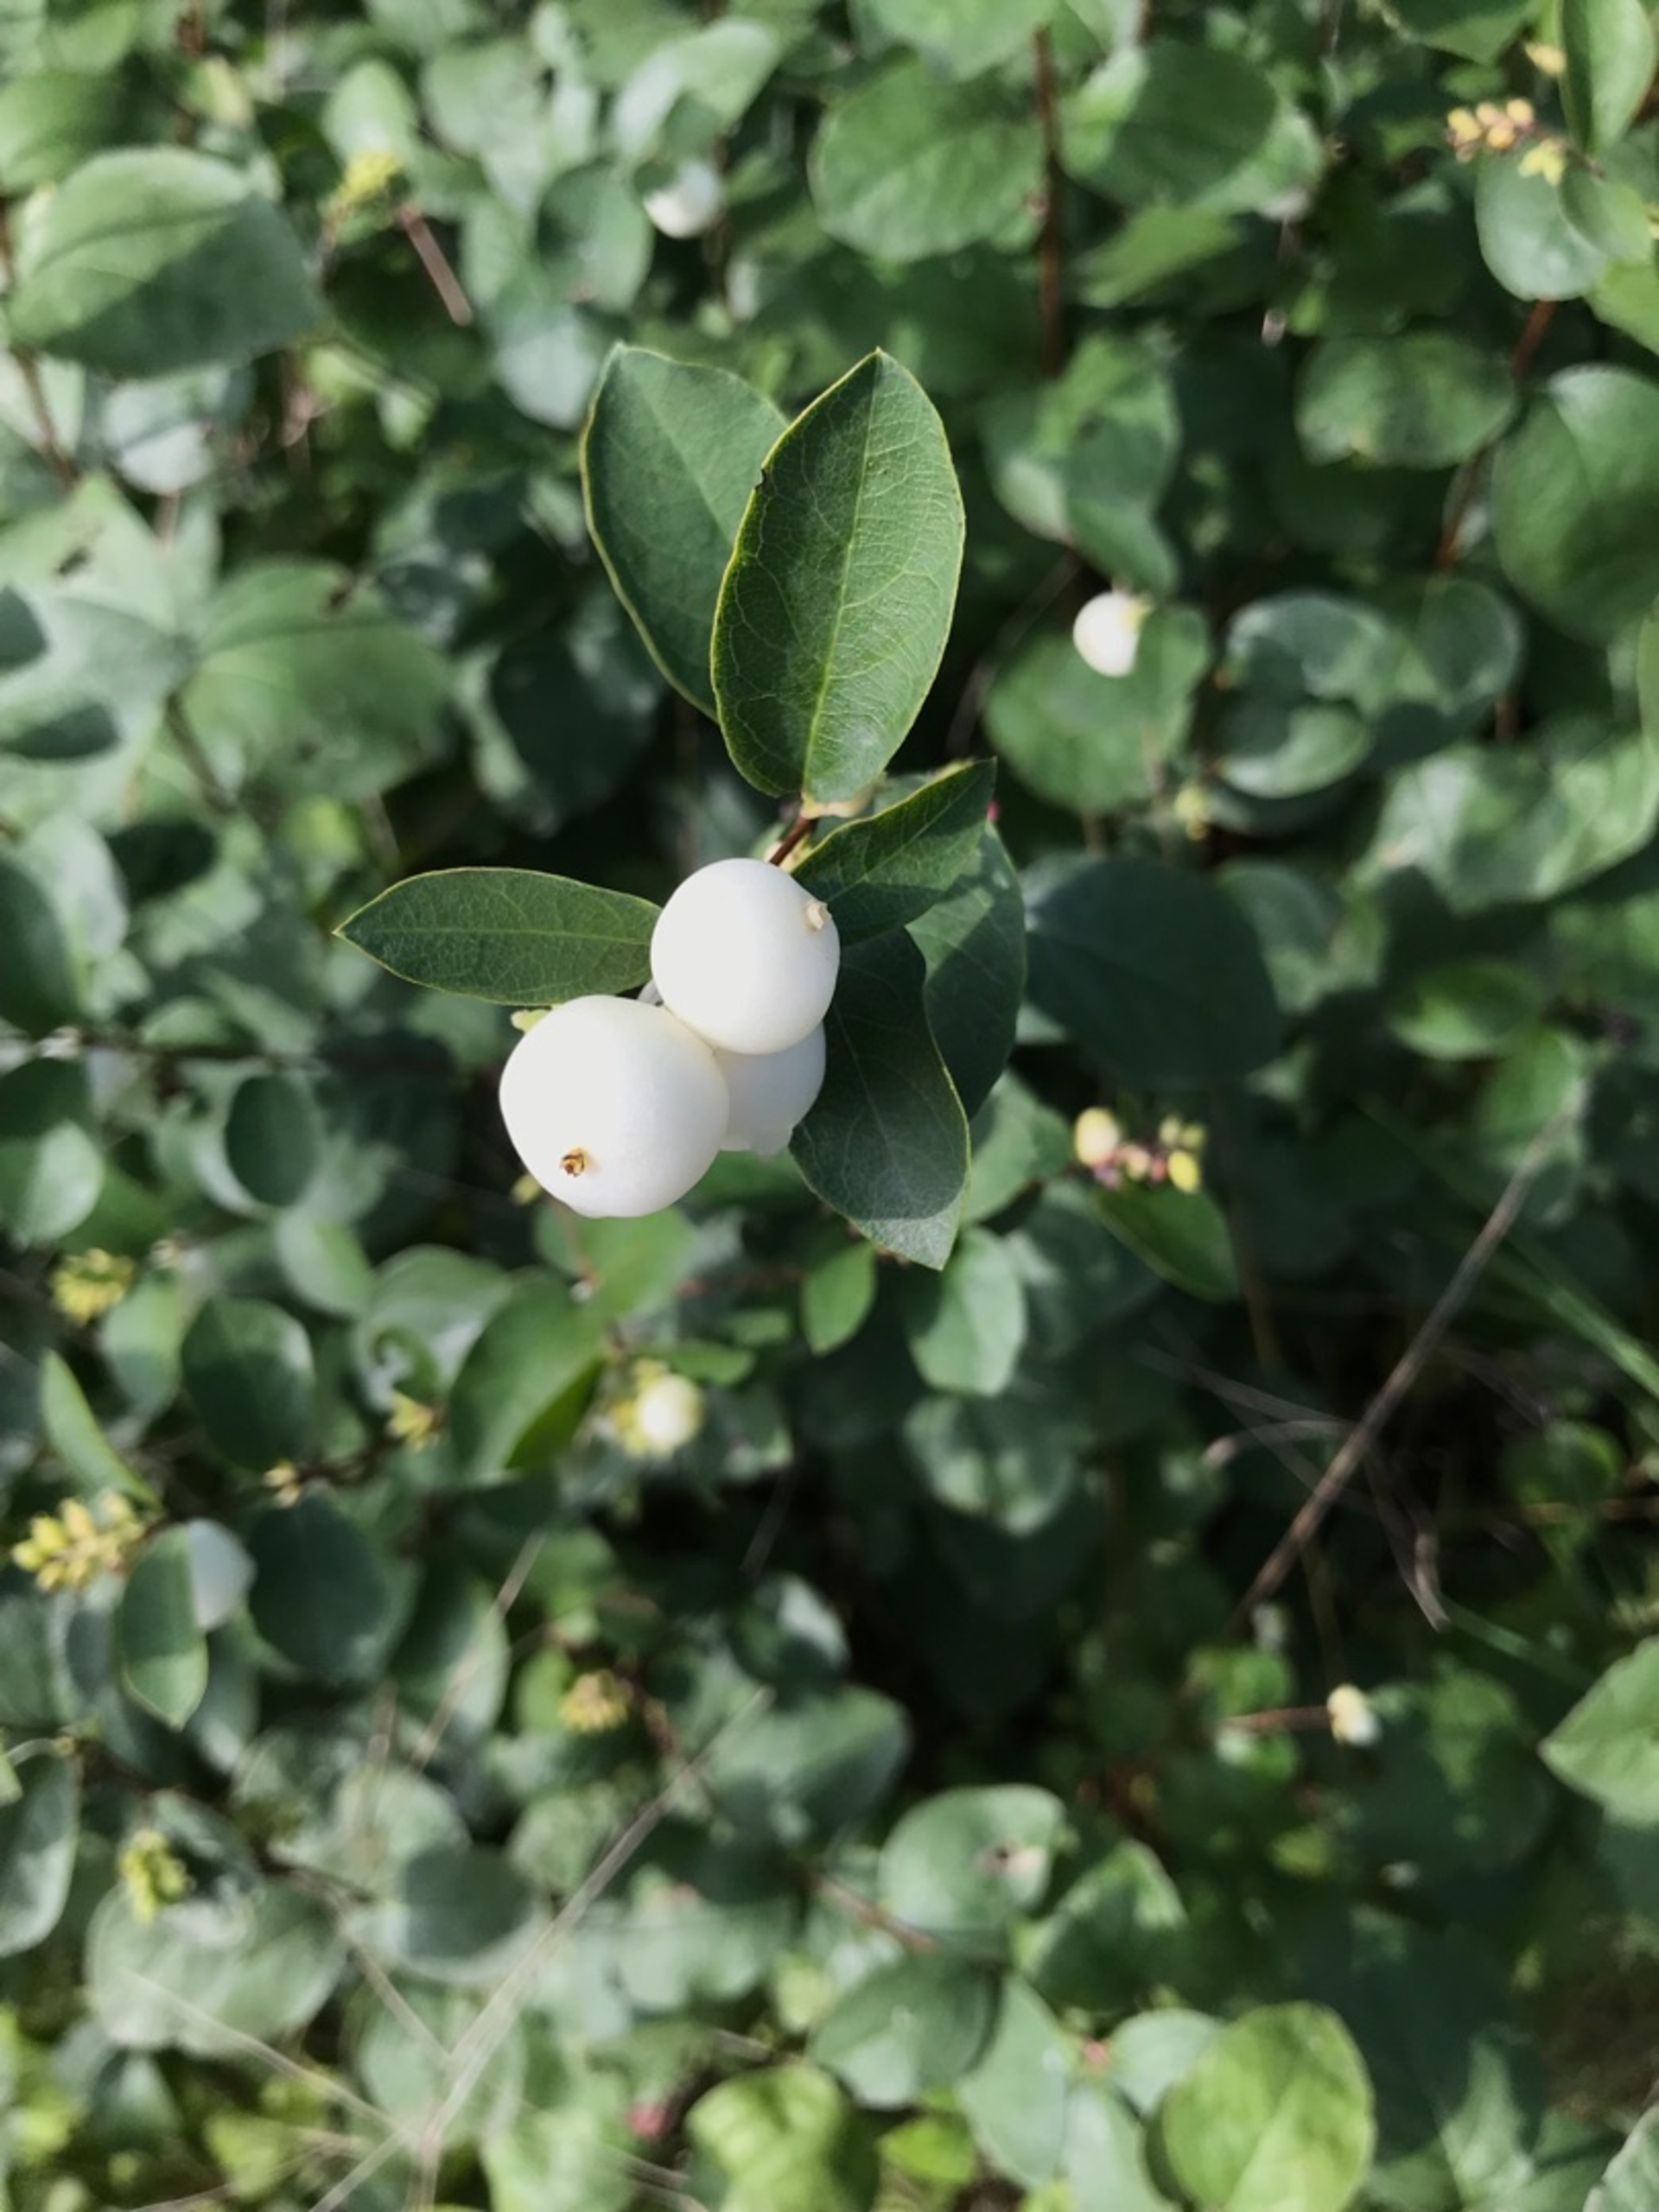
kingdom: Plantae
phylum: Tracheophyta
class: Magnoliopsida
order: Dipsacales
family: Caprifoliaceae
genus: Symphoricarpos
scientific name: Symphoricarpos albus
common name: Almindelig snebær
